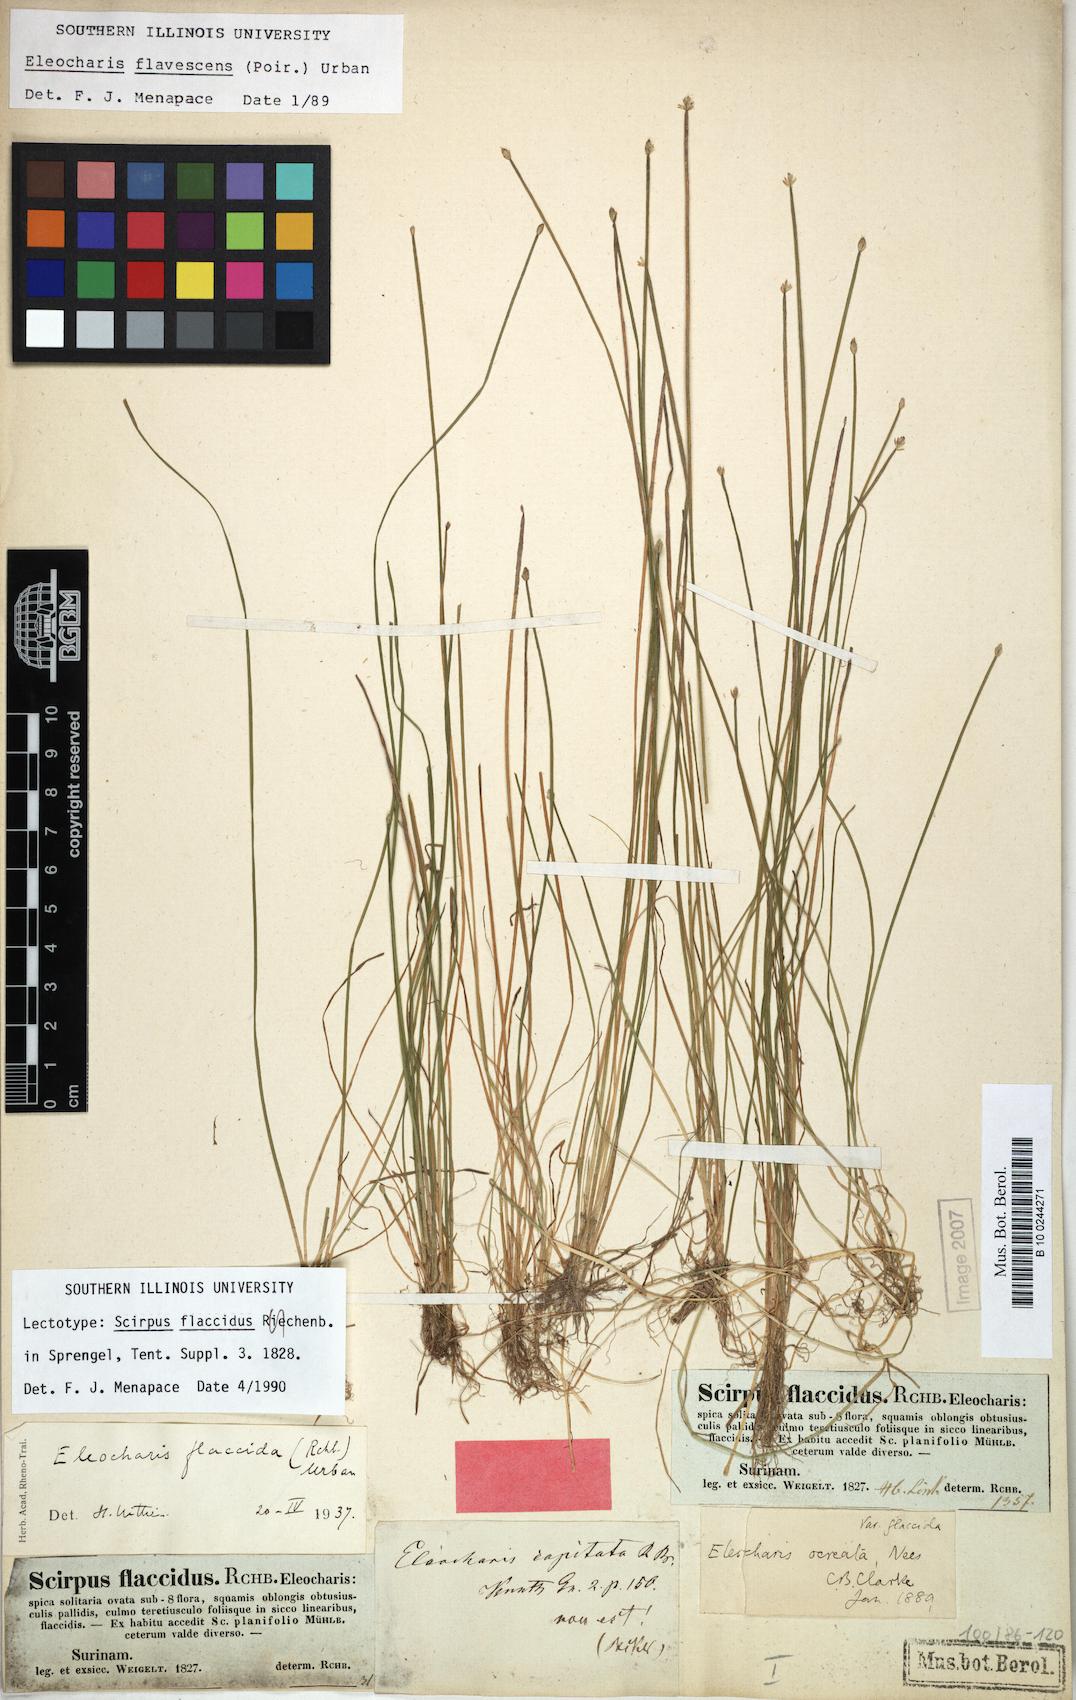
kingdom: Plantae
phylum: Tracheophyta
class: Liliopsida
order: Poales
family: Cyperaceae
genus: Eleocharis
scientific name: Eleocharis flavescens
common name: Yellow spikerush
